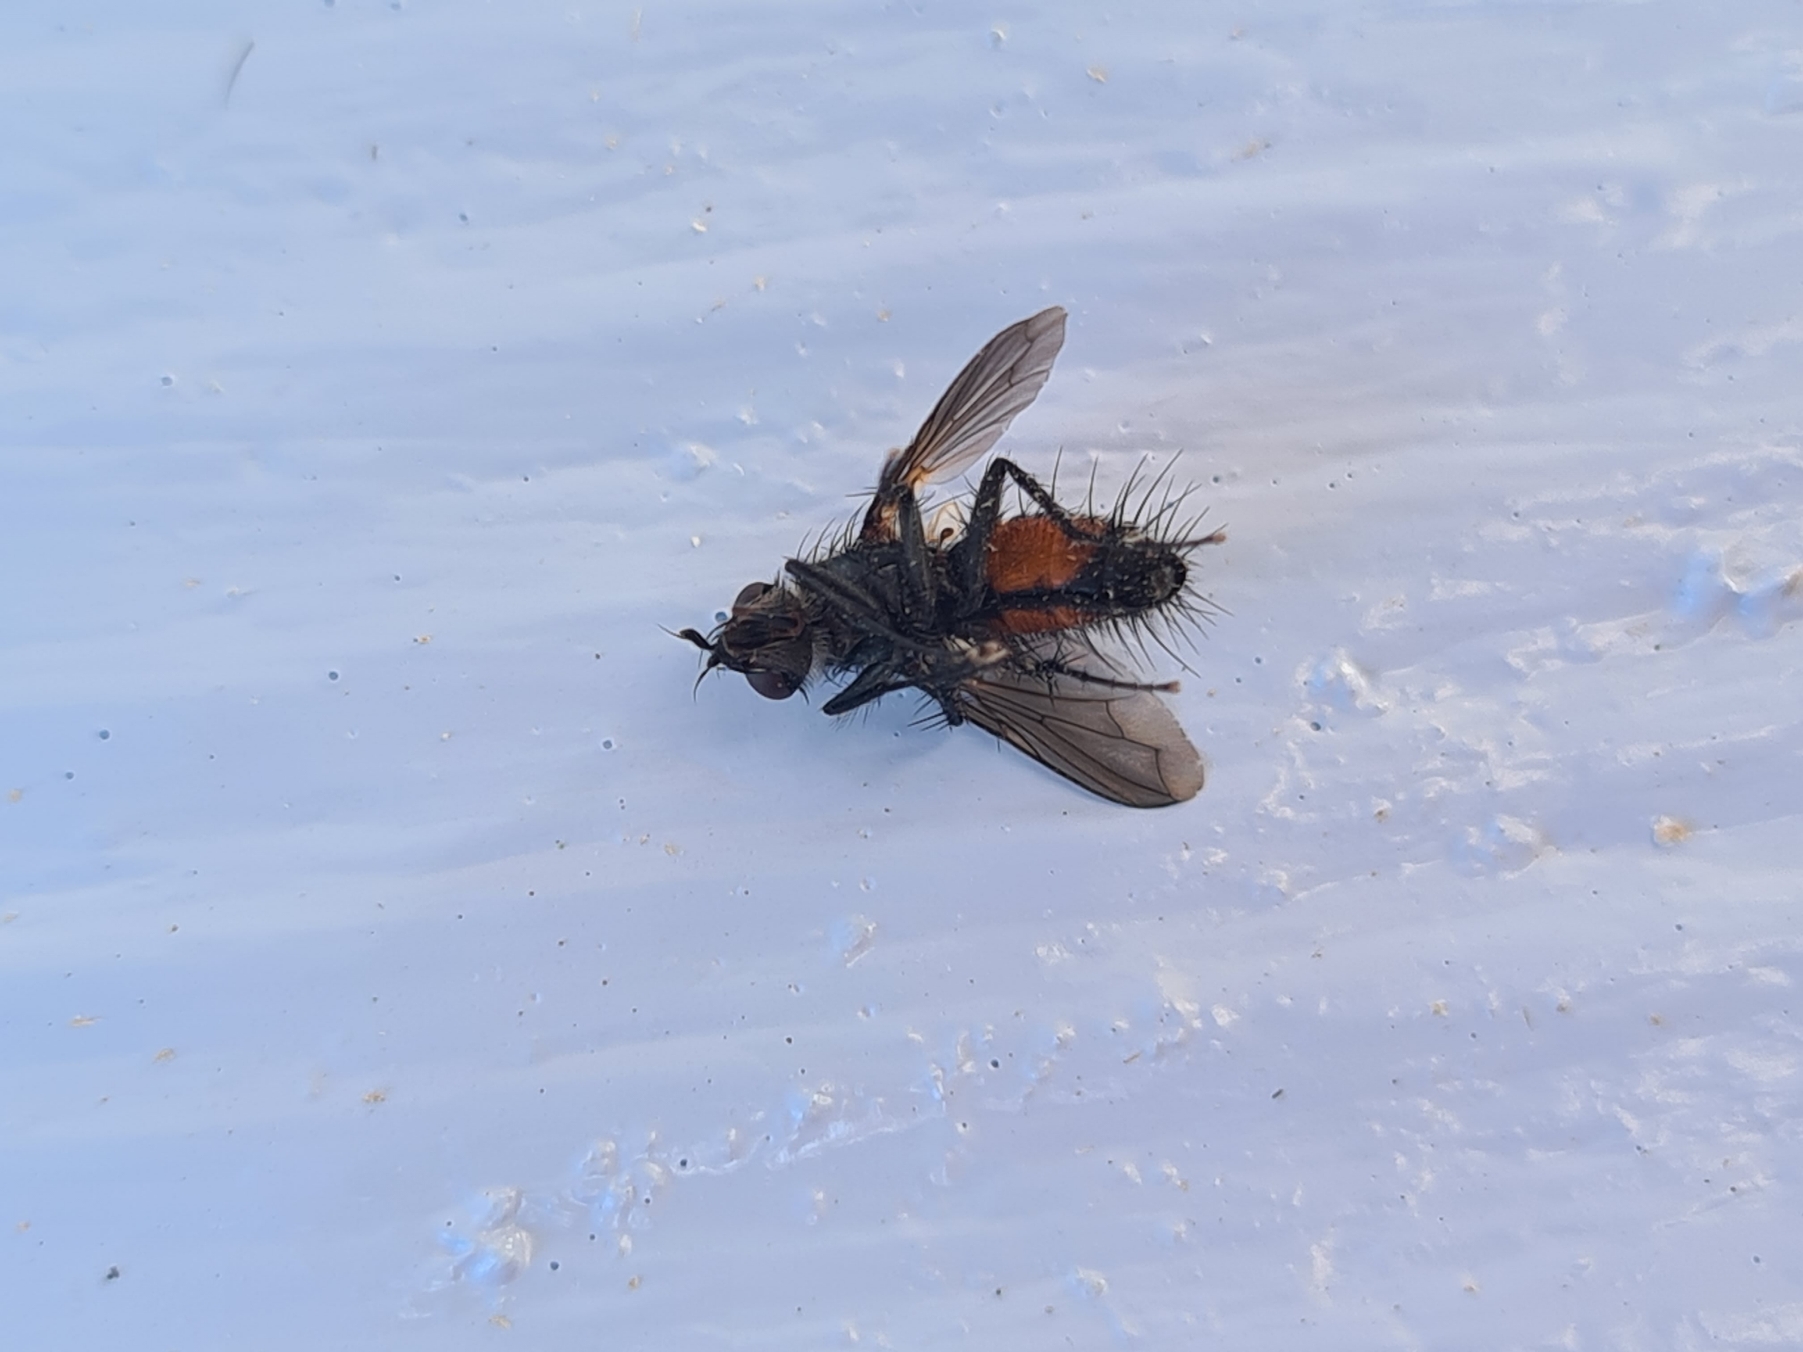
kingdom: Animalia
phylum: Arthropoda
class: Insecta
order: Diptera
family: Tachinidae
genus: Eriothrix
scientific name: Eriothrix rufomaculatus
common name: Rød snylteflue
